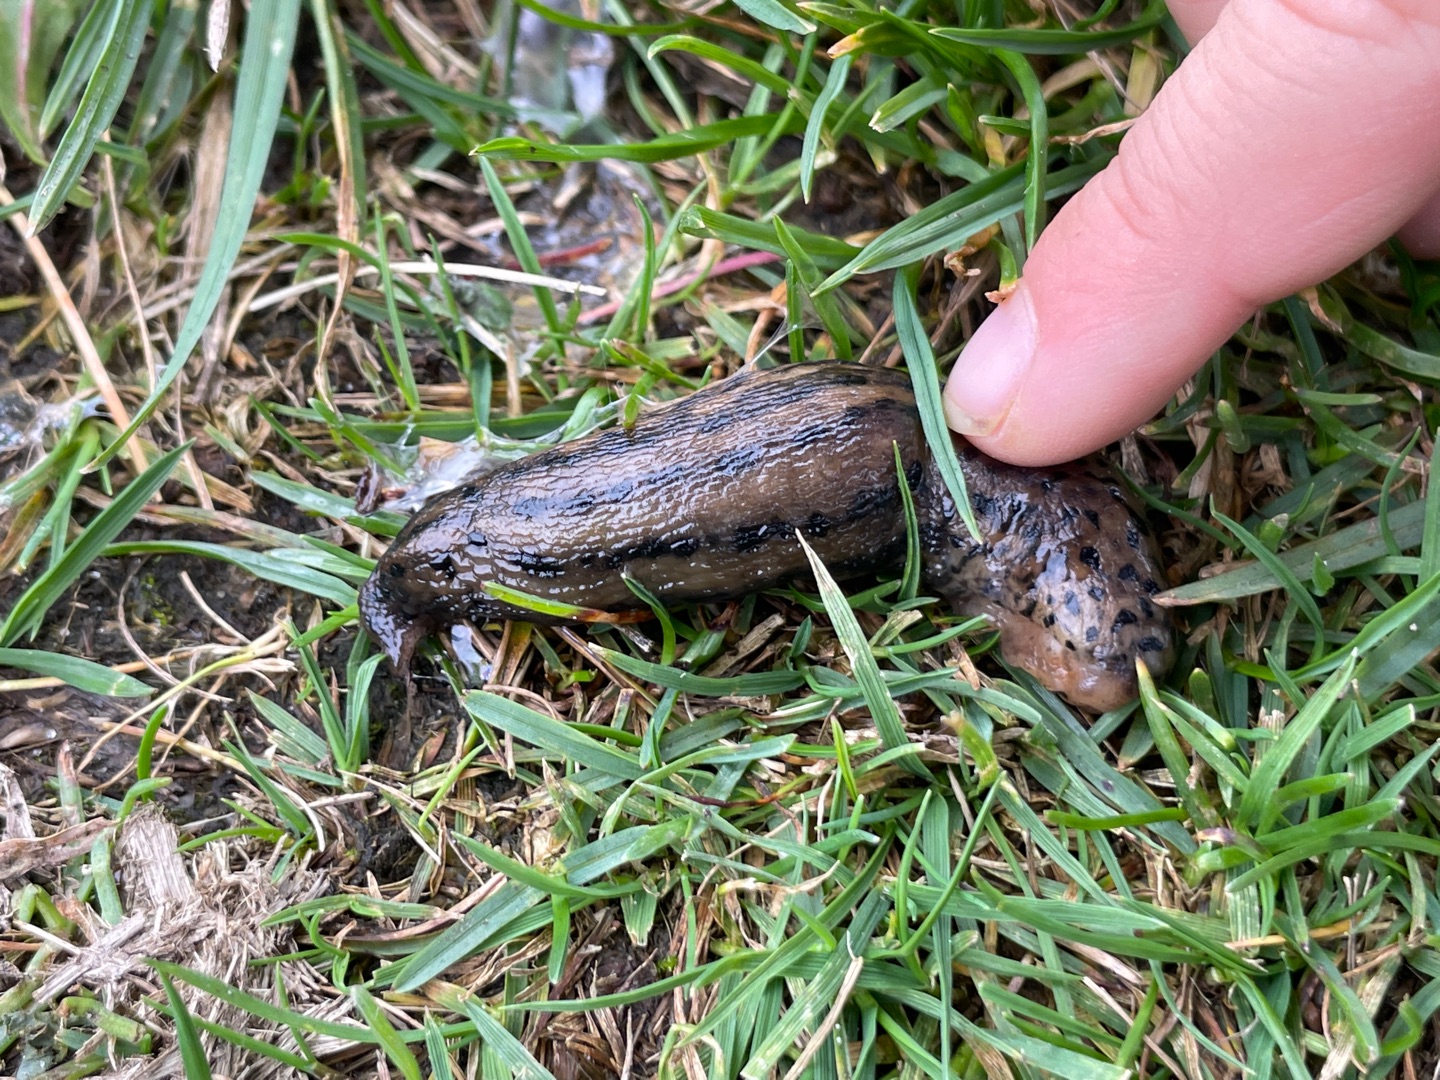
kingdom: Animalia
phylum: Mollusca
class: Gastropoda
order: Stylommatophora
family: Limacidae
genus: Limax
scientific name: Limax maximus
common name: Pantersnegl
